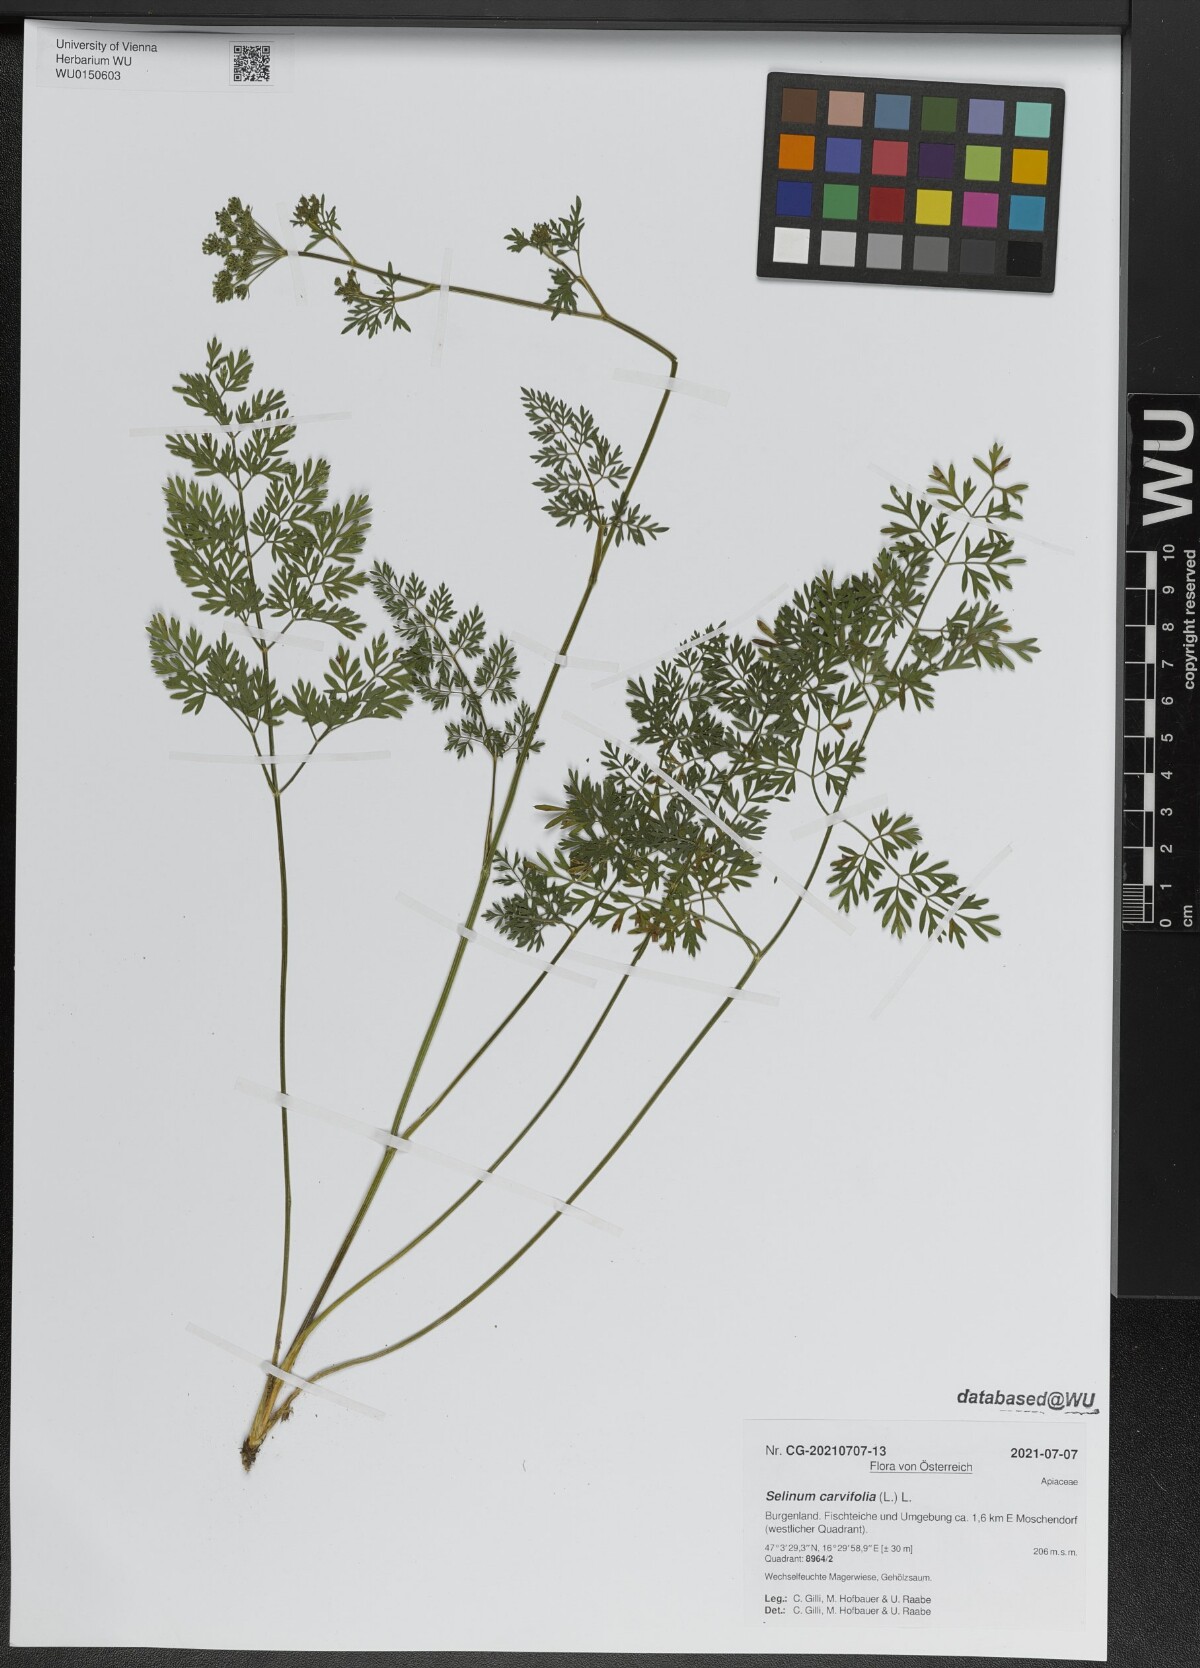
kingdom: Plantae
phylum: Tracheophyta
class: Magnoliopsida
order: Apiales
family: Apiaceae
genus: Selinum
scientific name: Selinum carvifolia
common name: Cambridge milk-parsley
